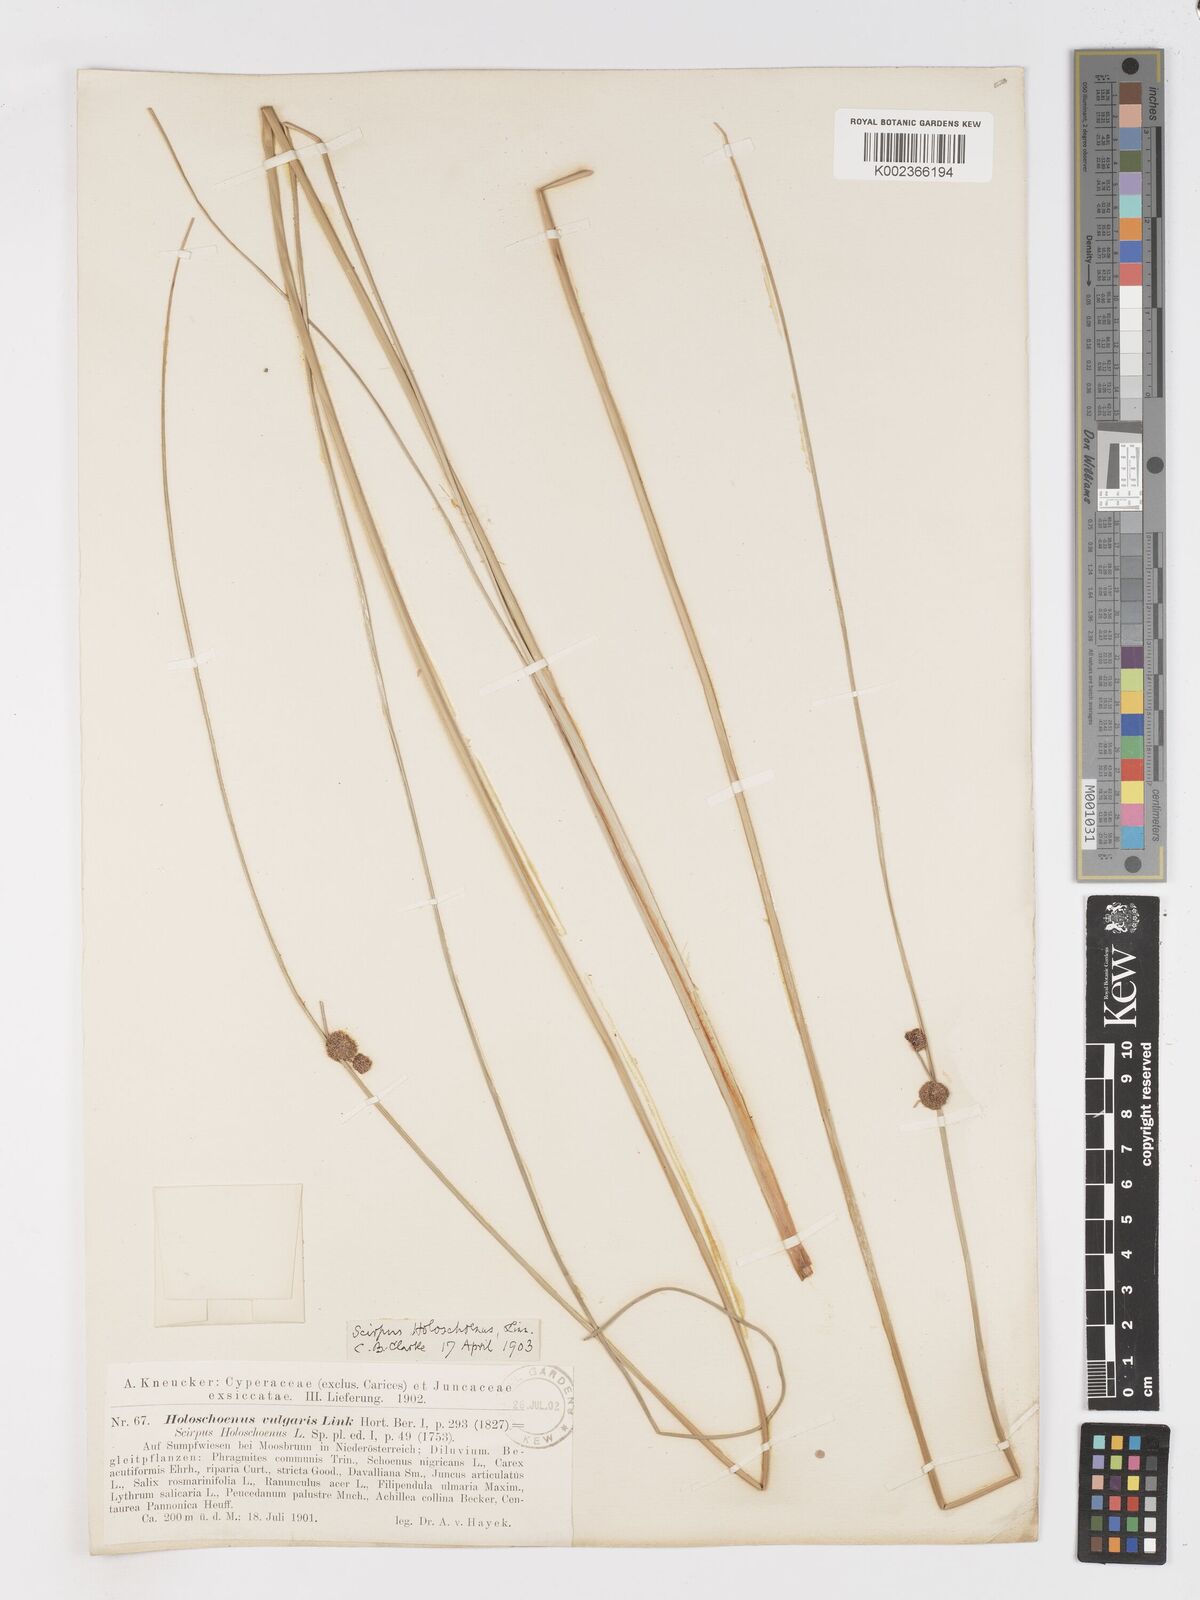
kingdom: Plantae
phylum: Tracheophyta
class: Liliopsida
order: Poales
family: Cyperaceae
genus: Scirpoides
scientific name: Scirpoides holoschoenus
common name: Round-headed club-rush
